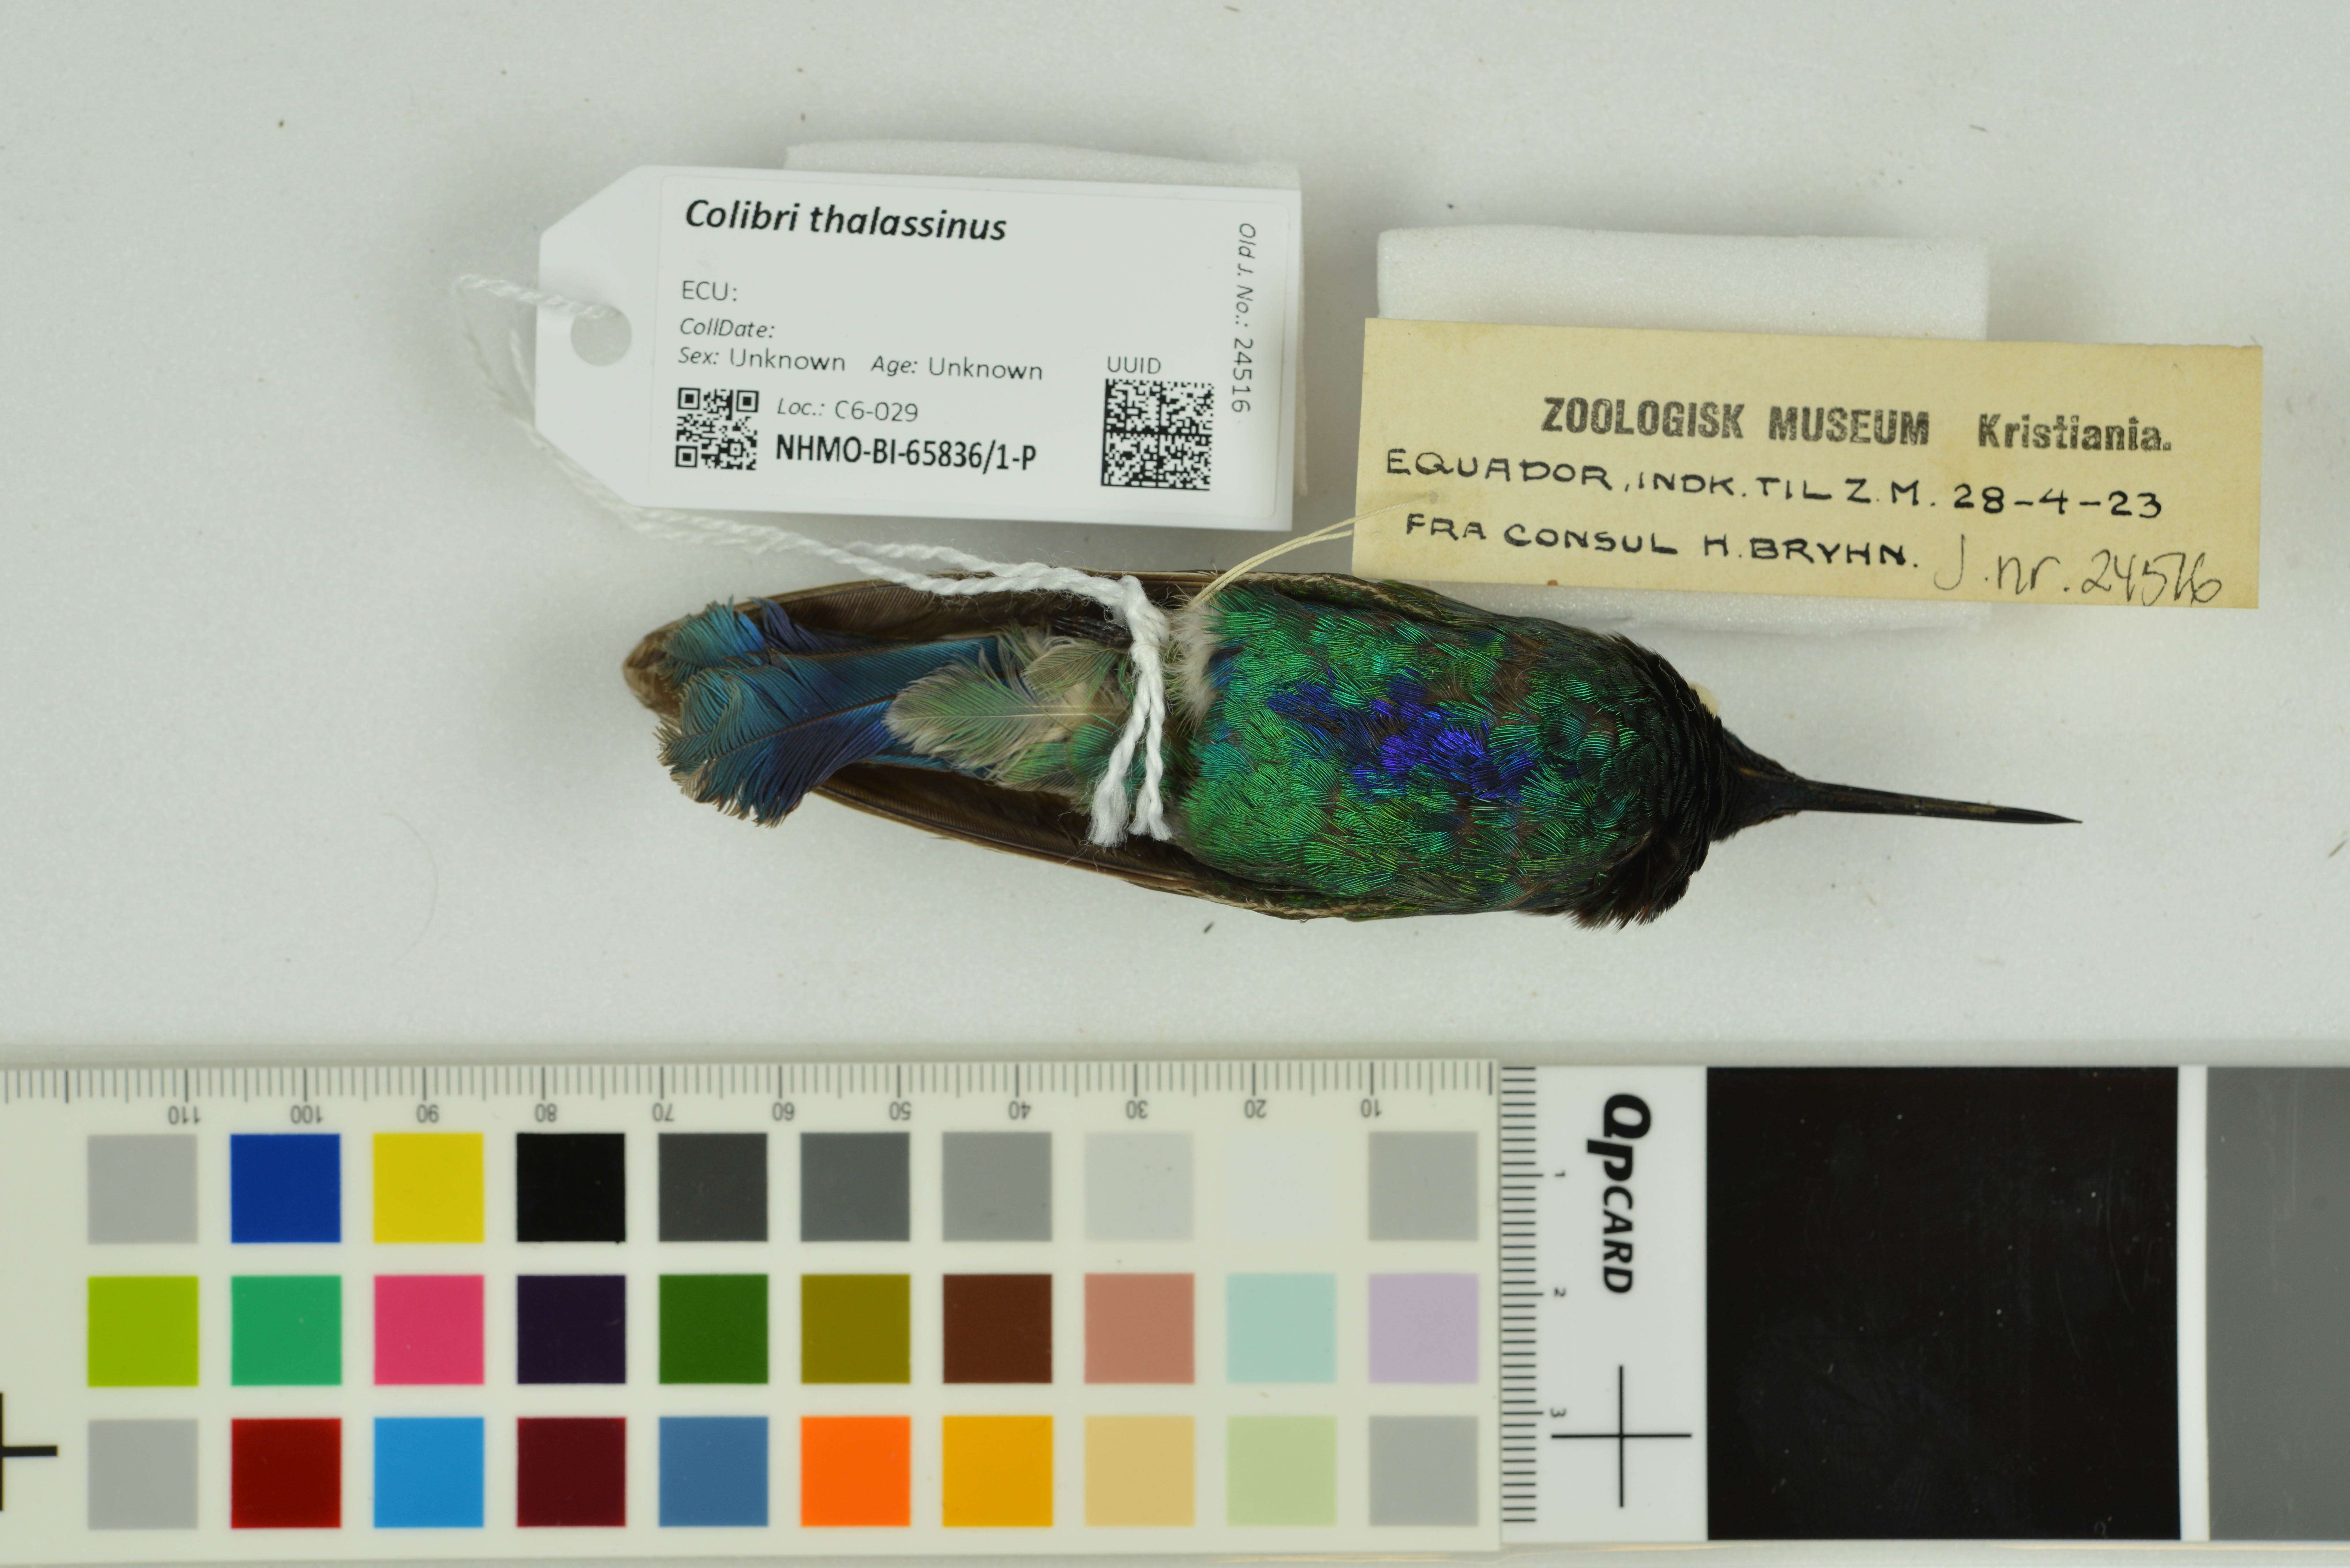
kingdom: Animalia
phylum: Chordata
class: Aves
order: Apodiformes
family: Trochilidae
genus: Colibri
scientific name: Colibri thalassinus
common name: Green violetear
